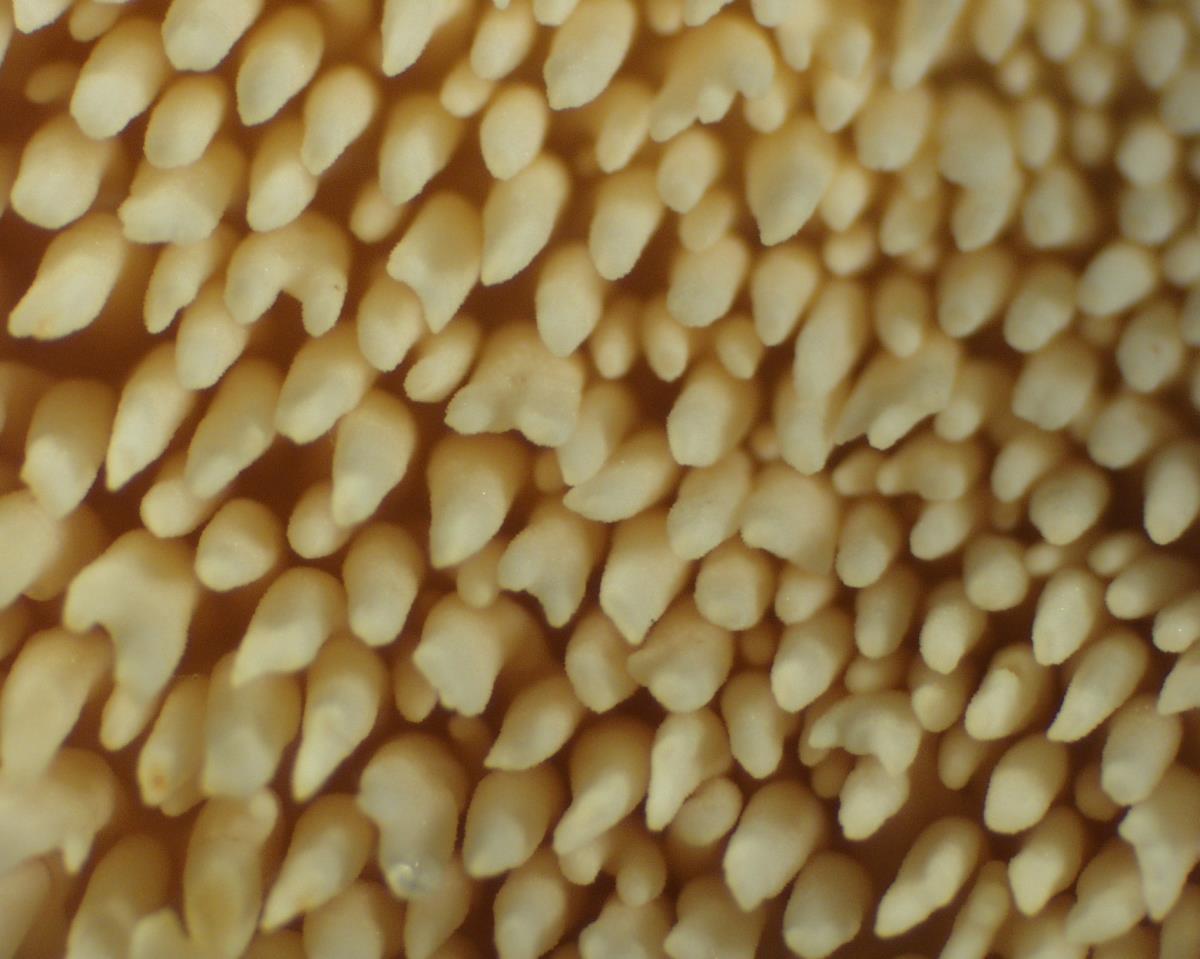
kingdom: Fungi
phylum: Basidiomycota
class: Agaricomycetes
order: Cantharellales
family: Hydnaceae
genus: Hydnum
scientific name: Hydnum ambustum
